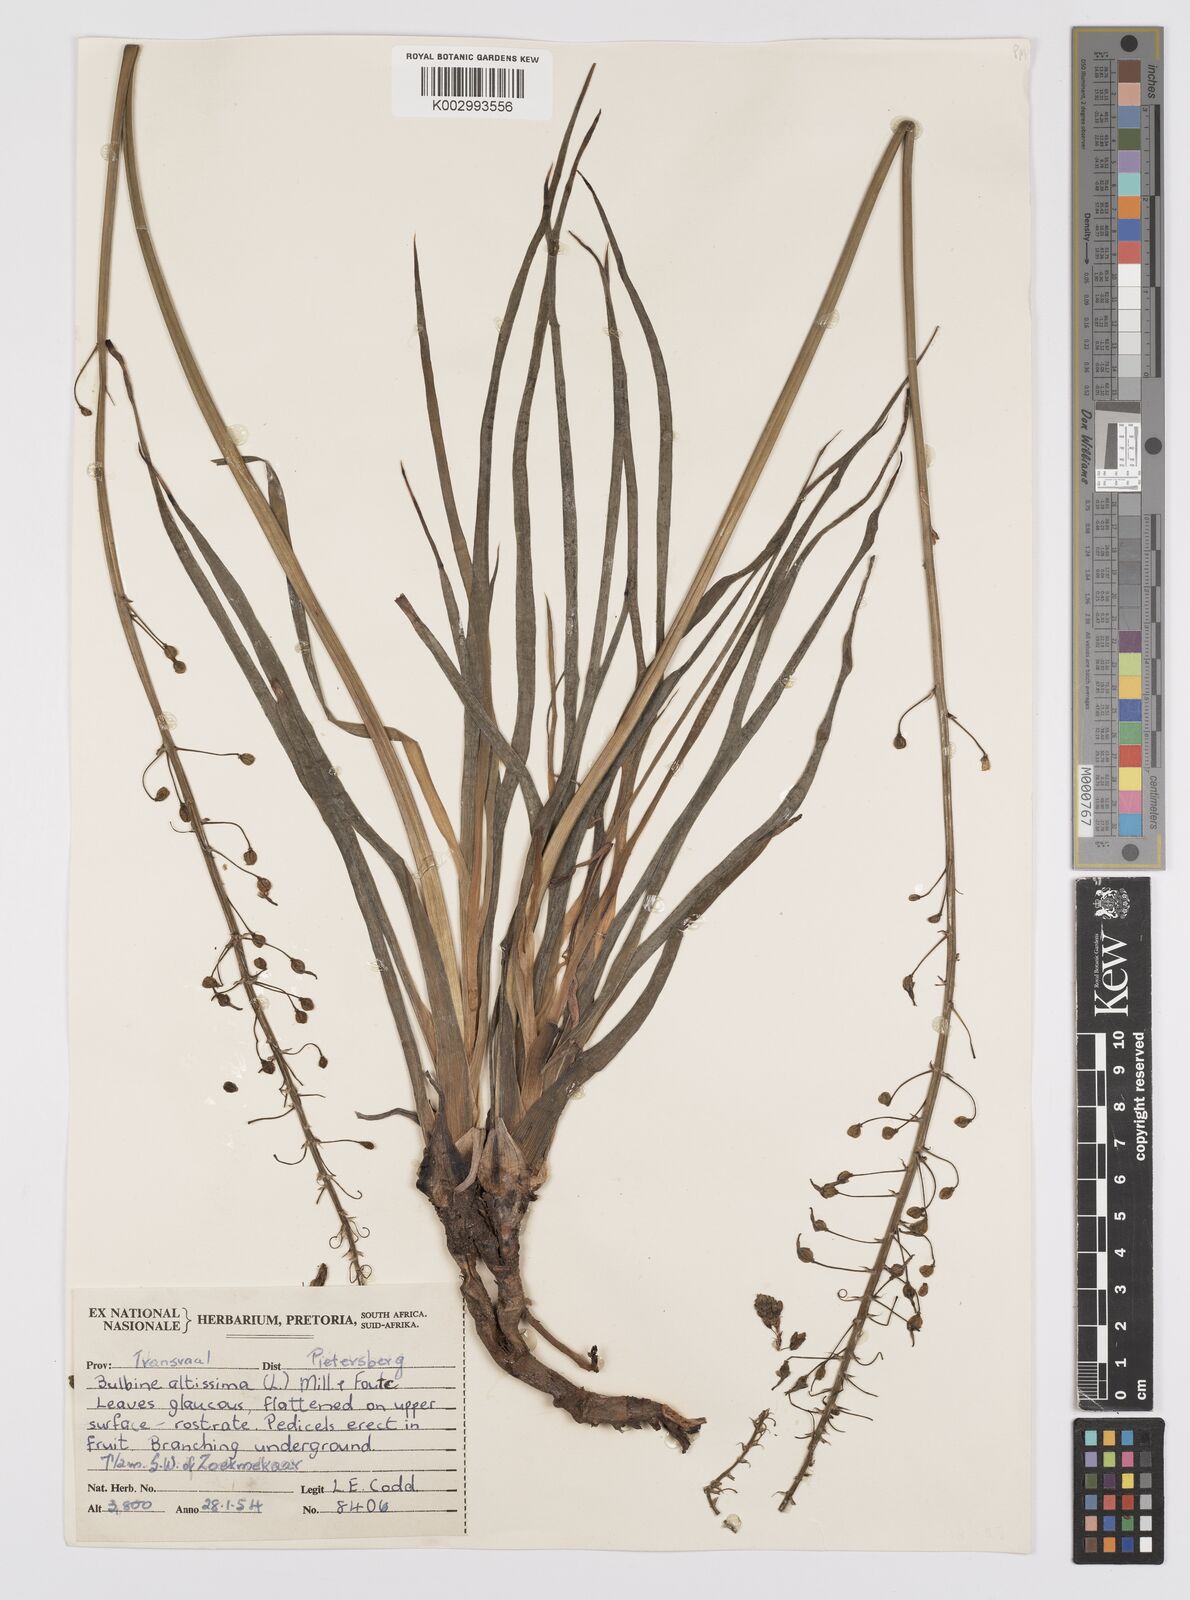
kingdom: Plantae
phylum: Tracheophyta
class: Liliopsida
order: Asparagales
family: Asphodelaceae
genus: Bulbine
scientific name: Bulbine asphodeloides
